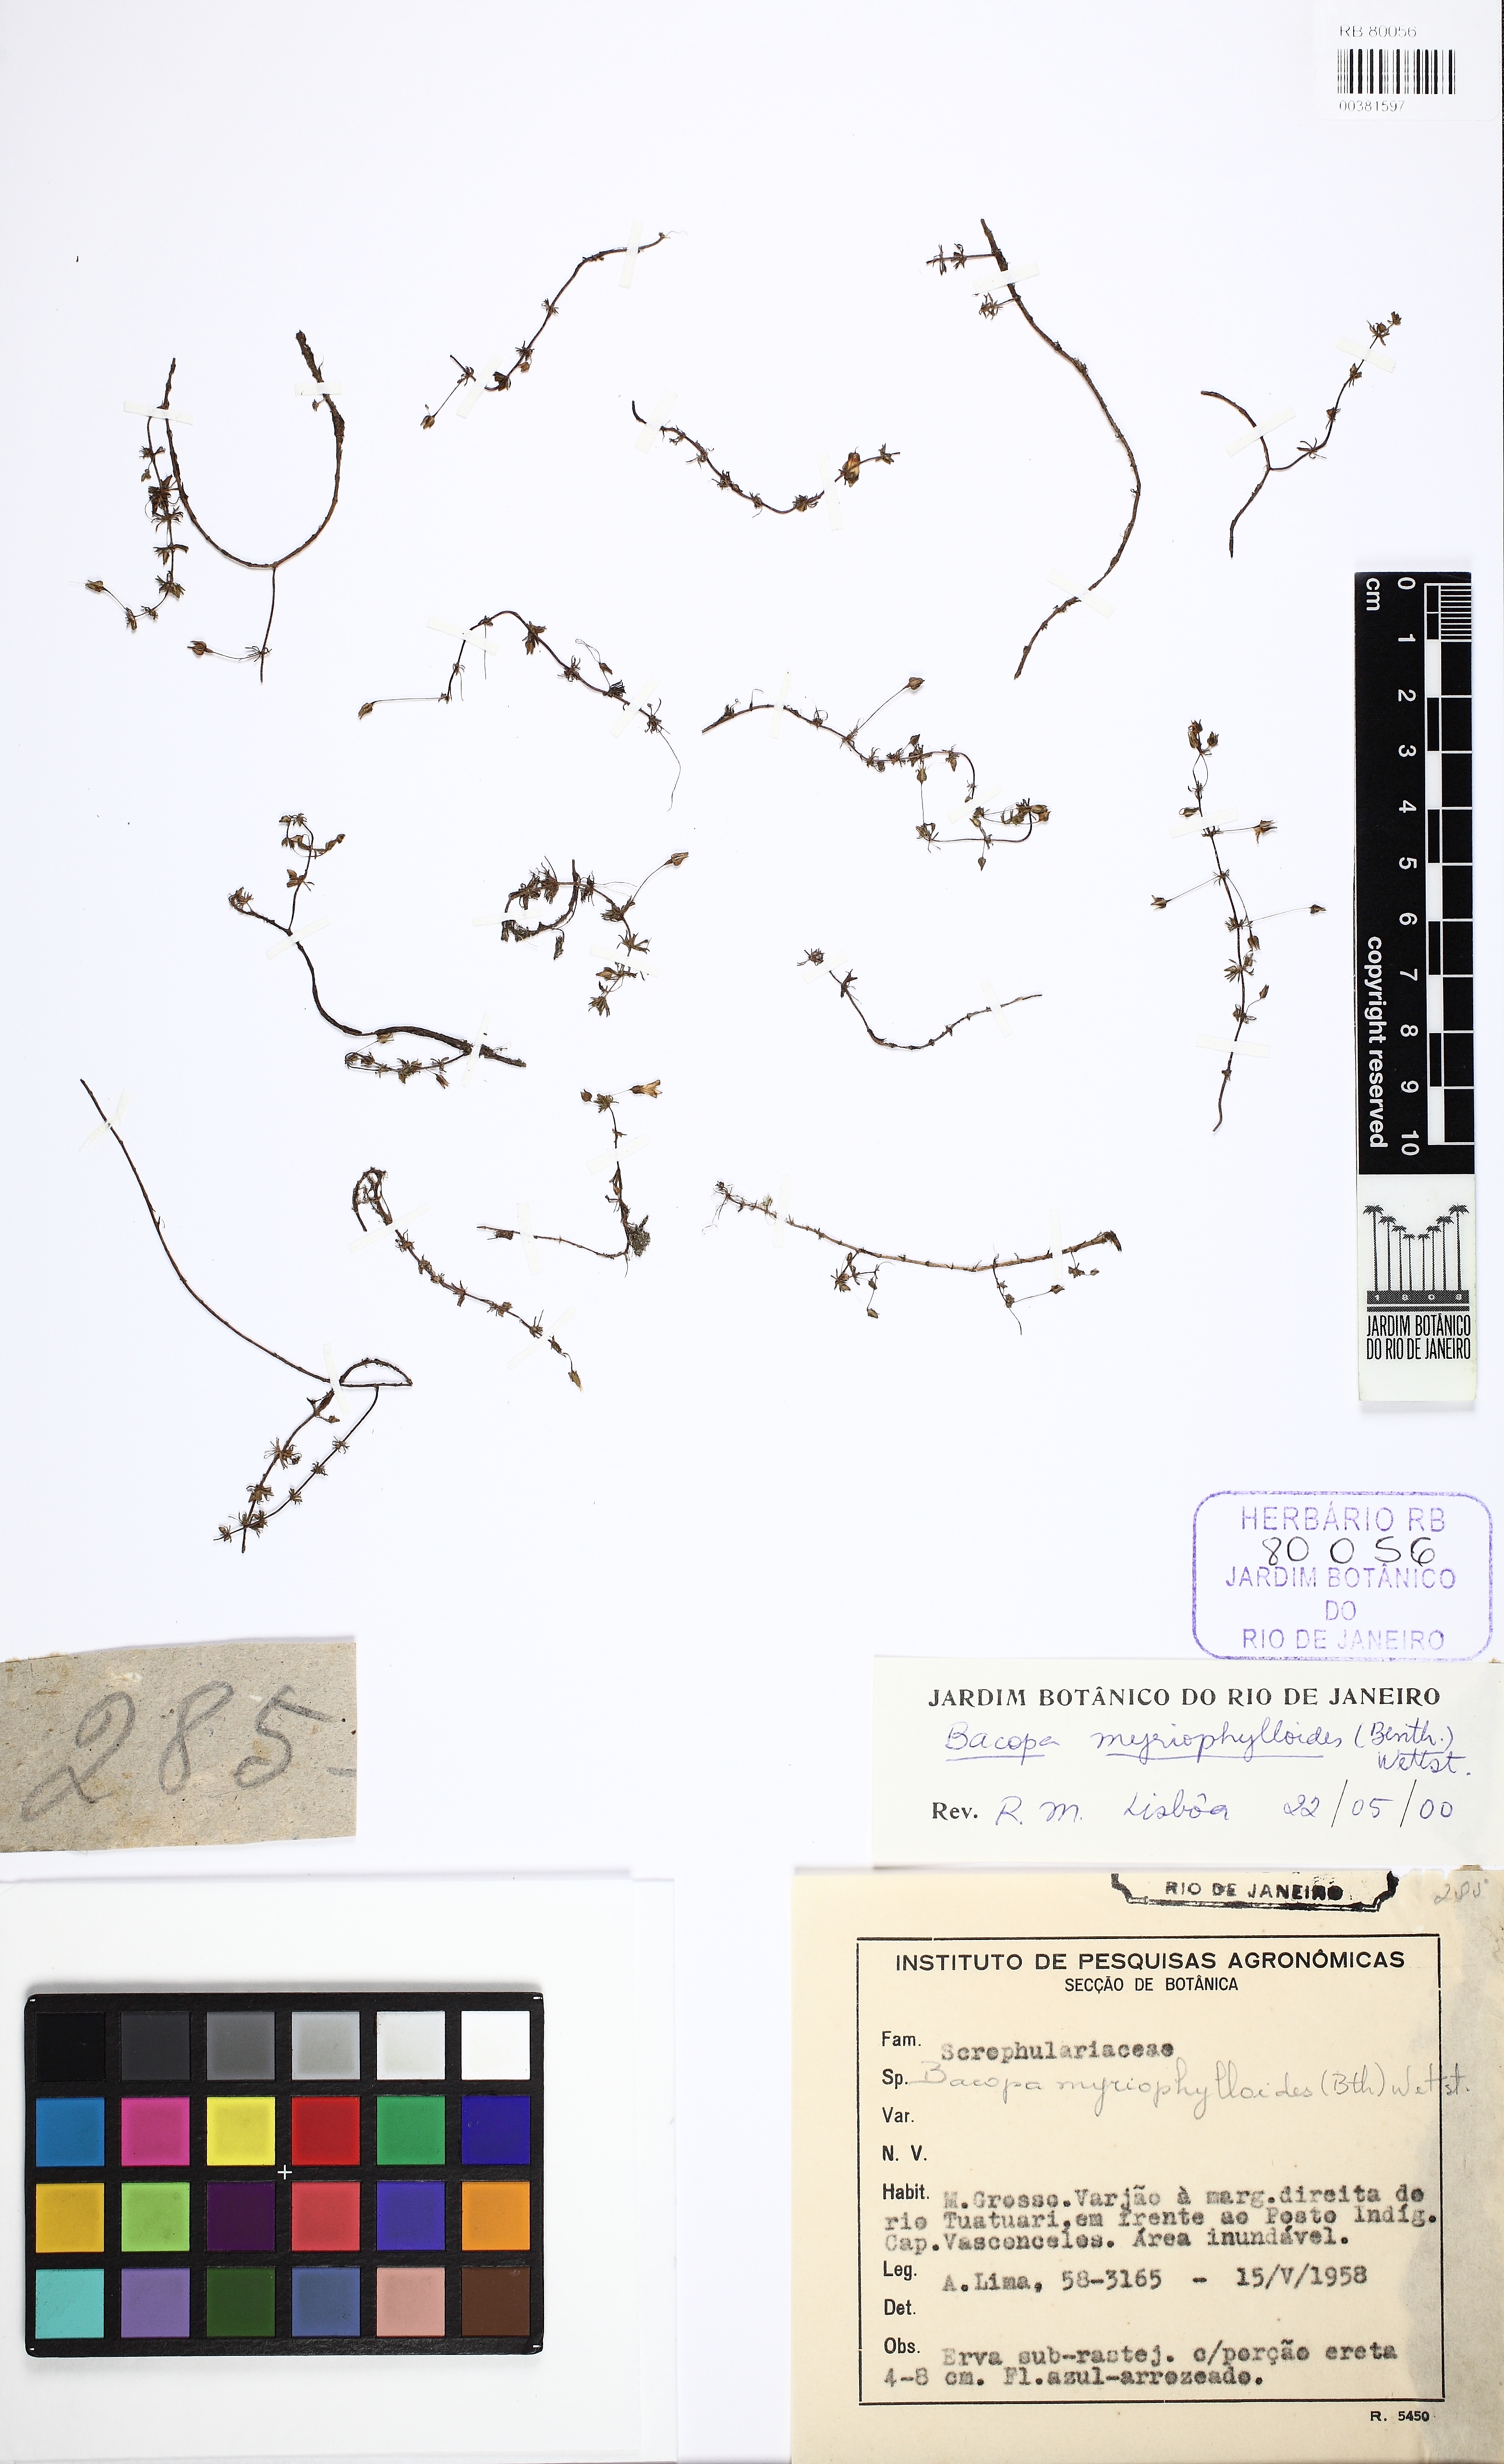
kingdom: Plantae
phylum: Tracheophyta
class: Magnoliopsida
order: Lamiales
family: Plantaginaceae
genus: Bacopa
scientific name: Bacopa myriophylloides
